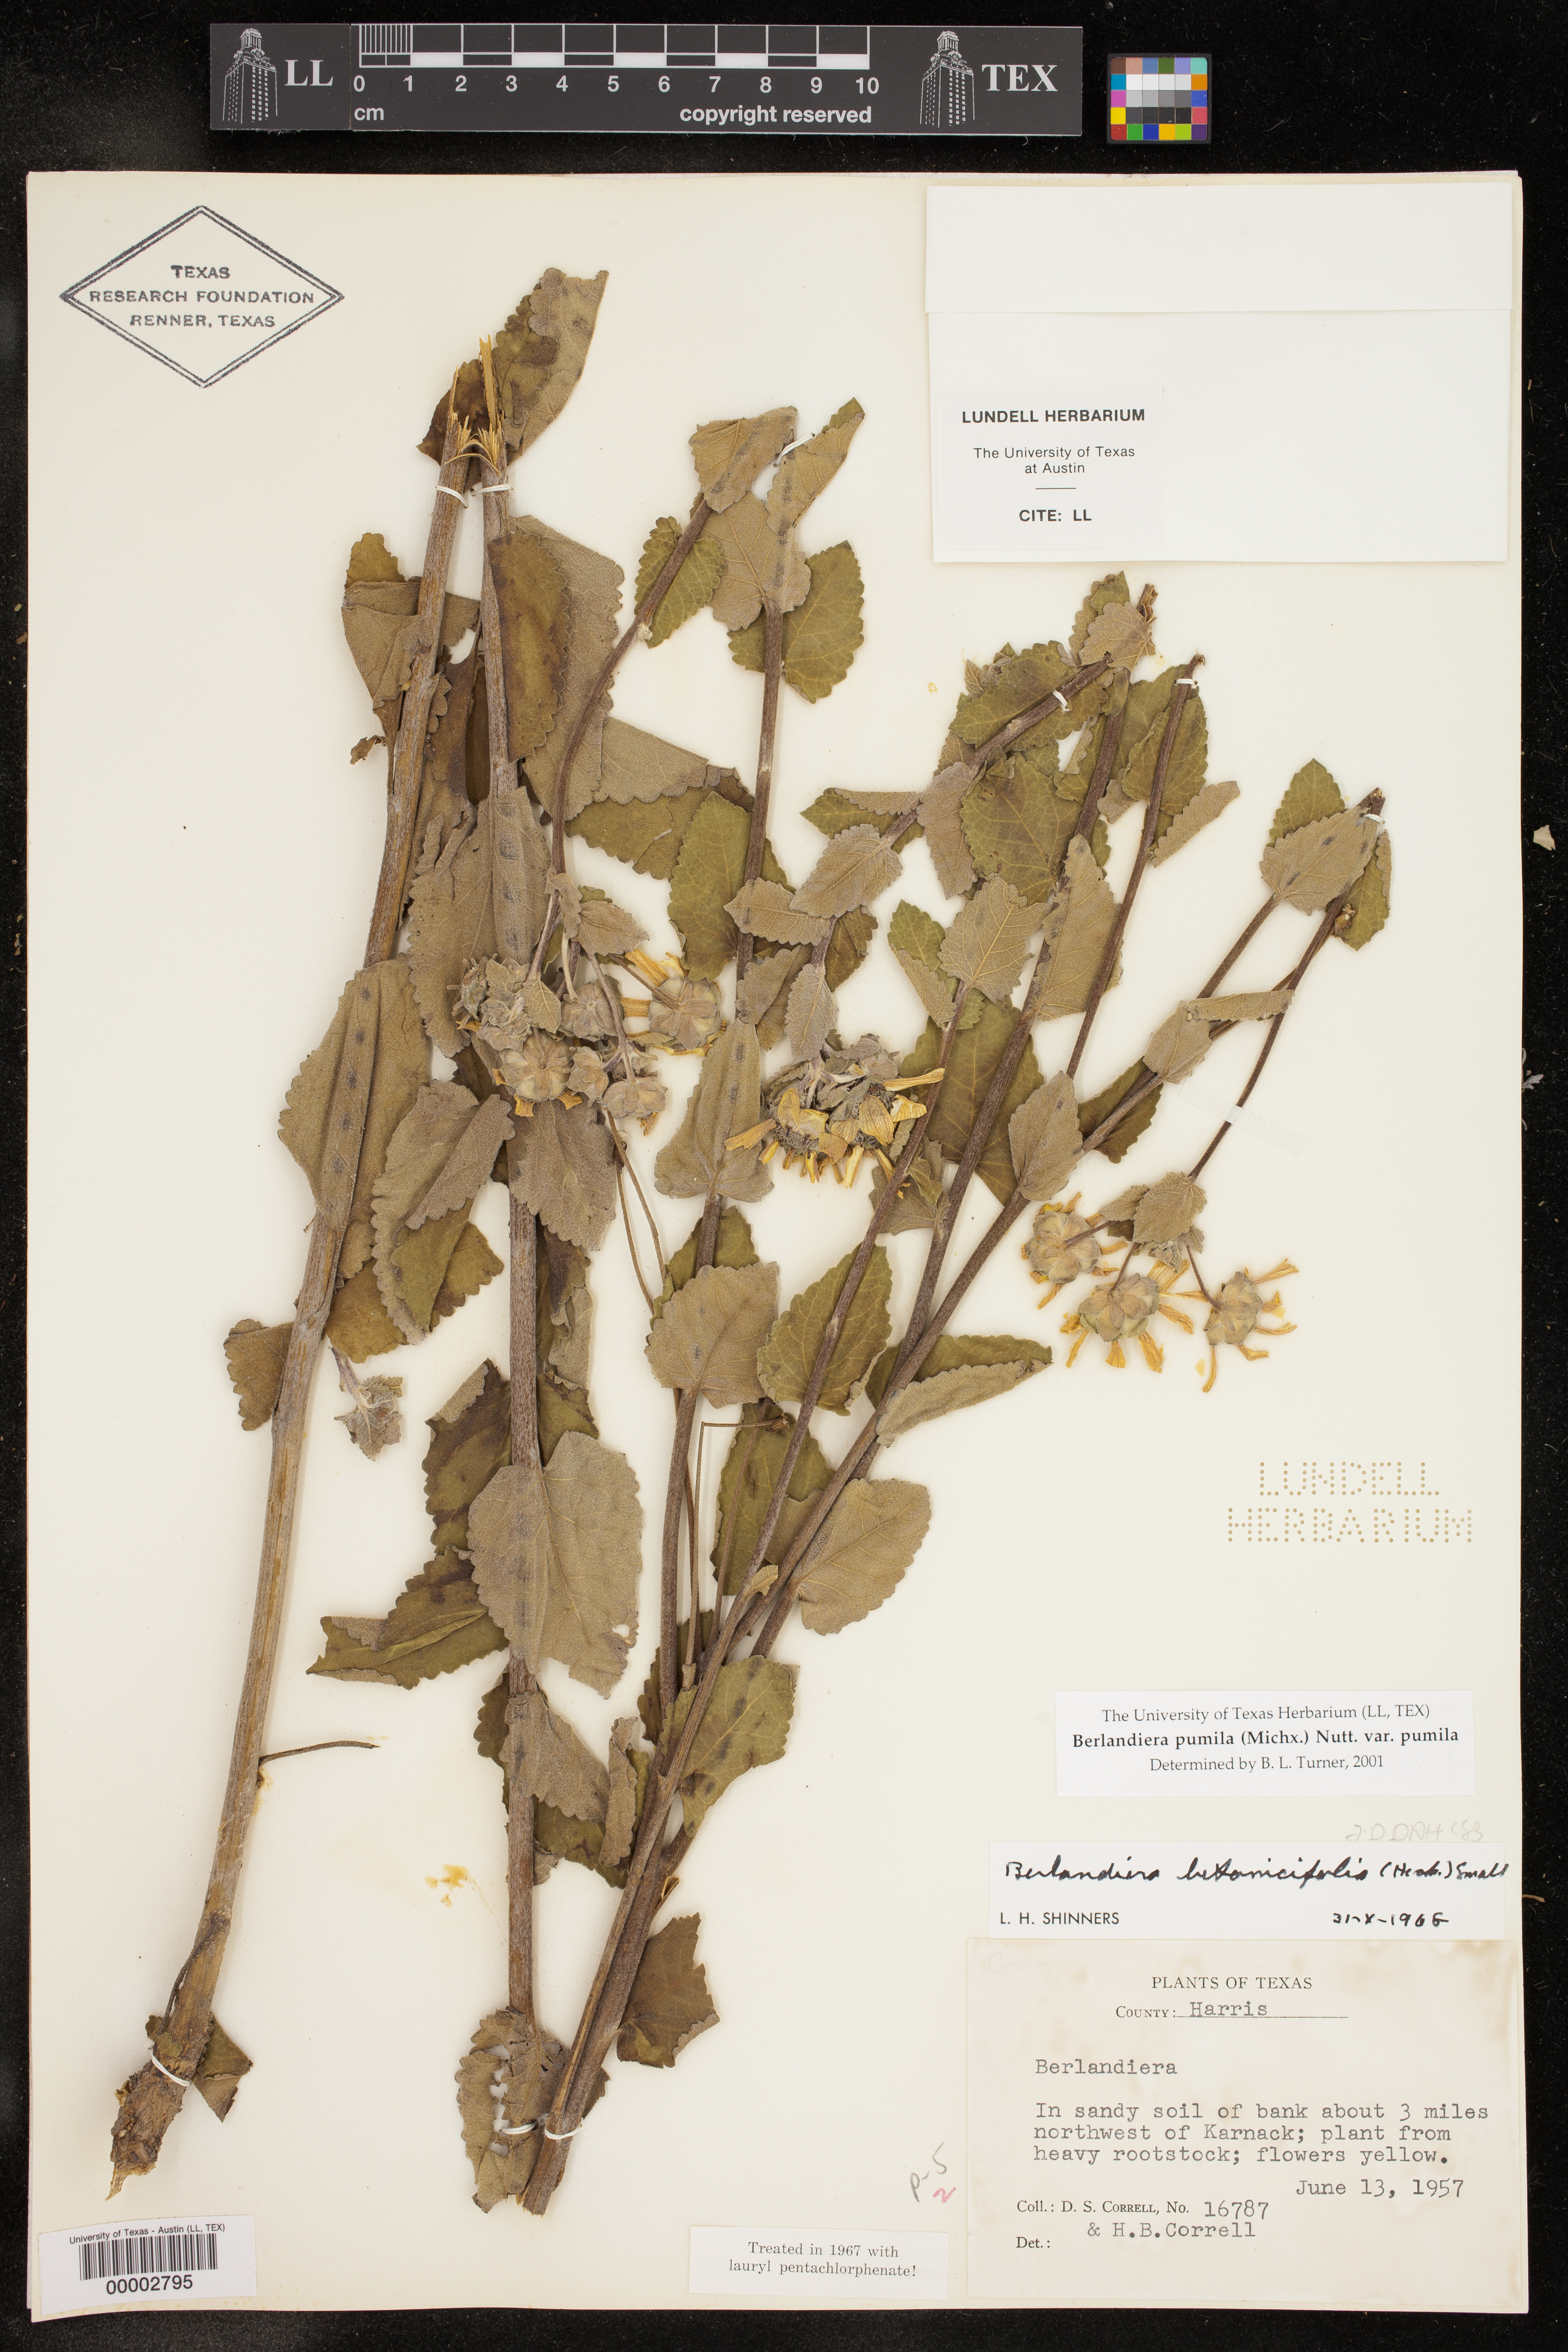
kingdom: Plantae
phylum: Tracheophyta
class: Magnoliopsida
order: Asterales
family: Asteraceae
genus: Berlandiera
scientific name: Berlandiera pumila
